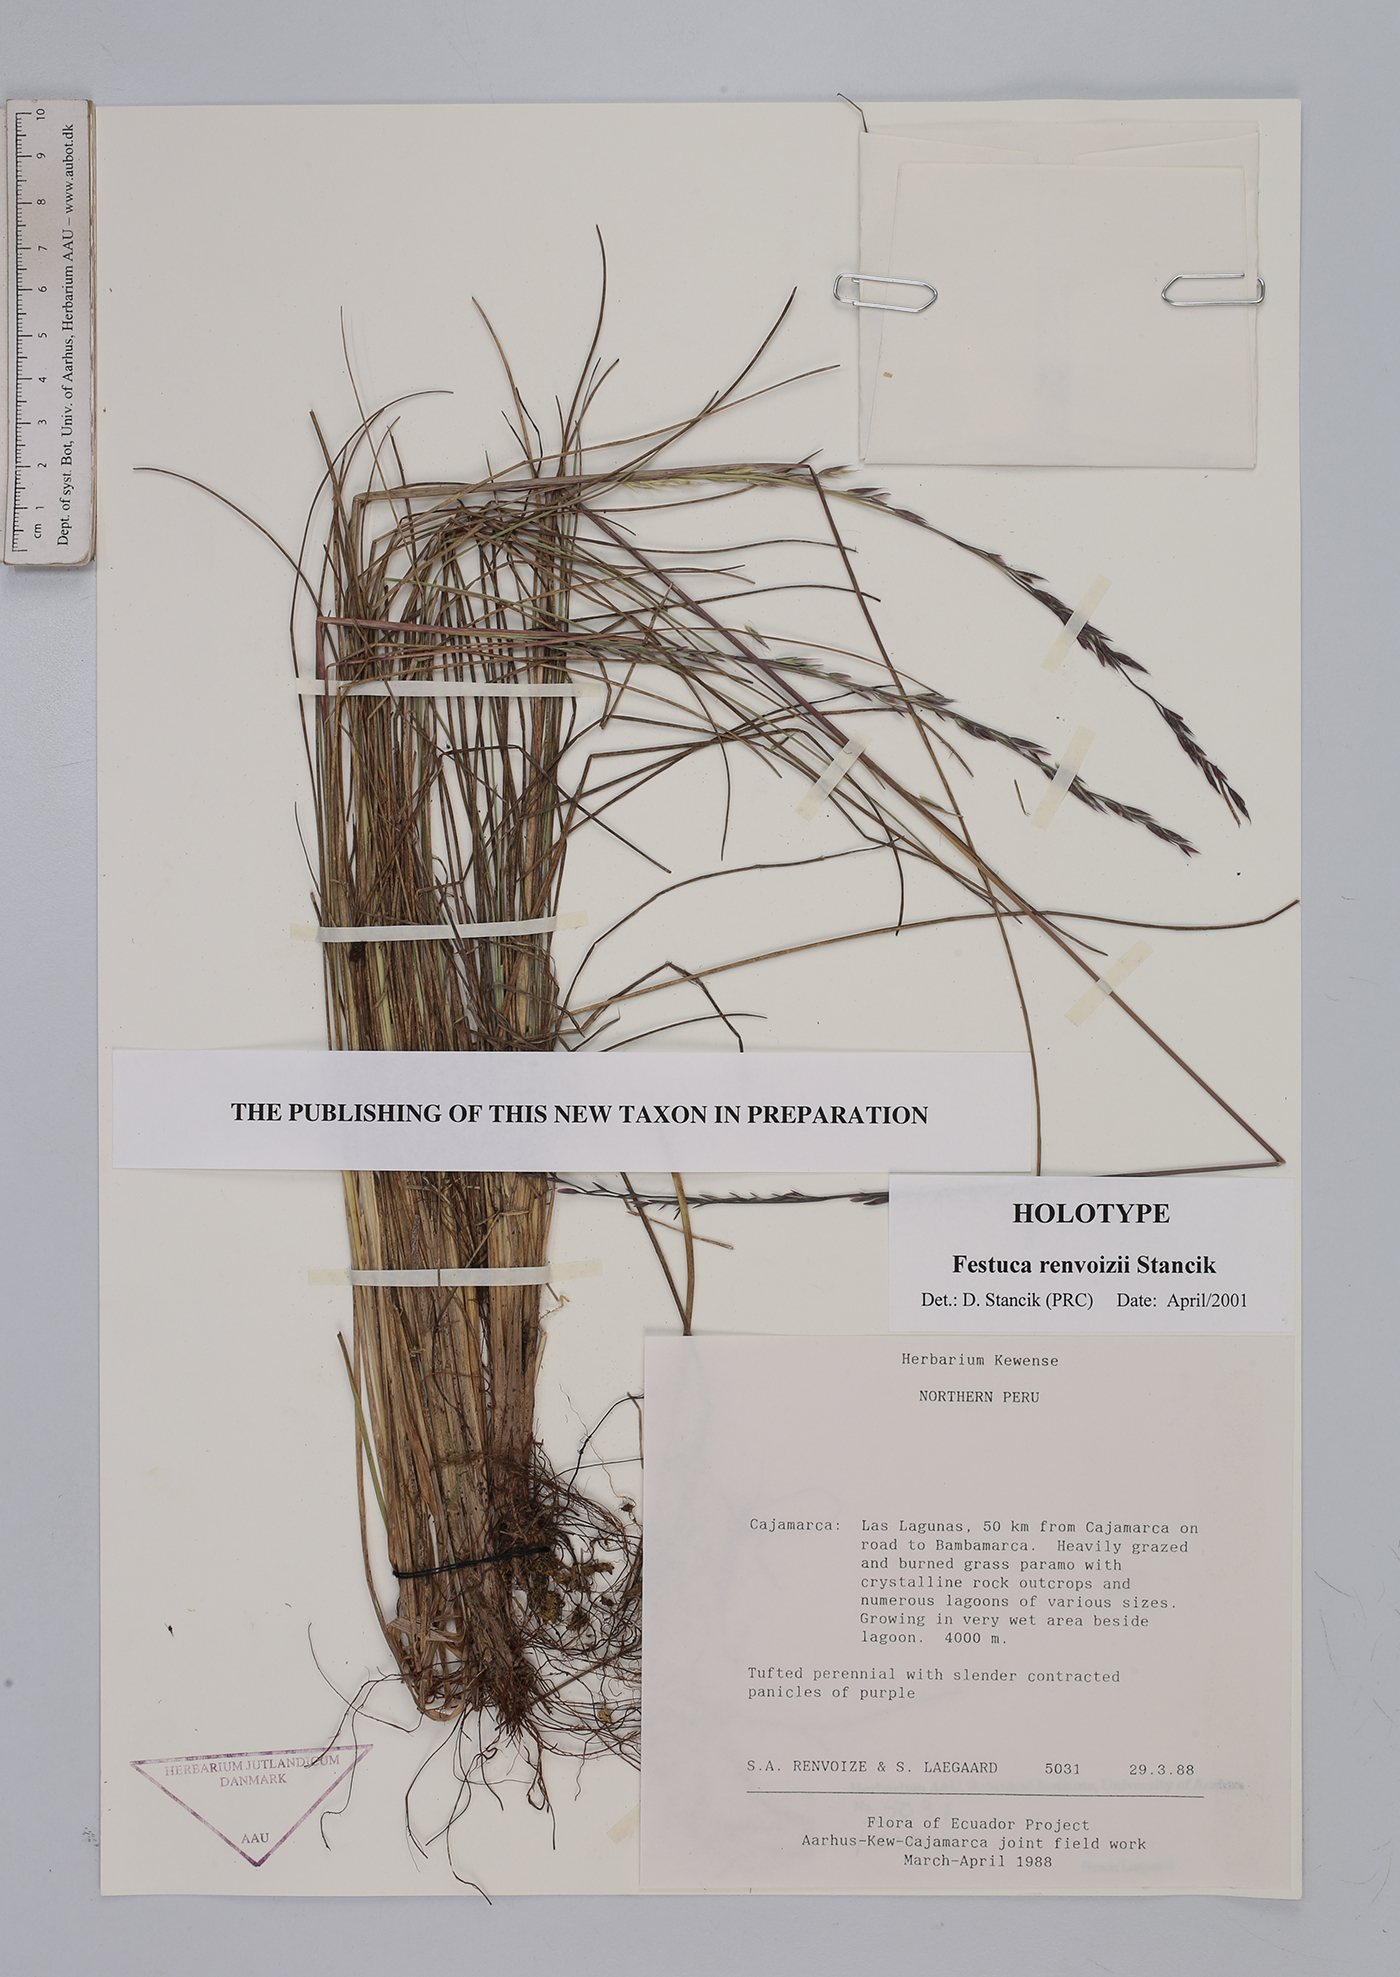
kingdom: Plantae
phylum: Tracheophyta
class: Liliopsida
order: Poales
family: Poaceae
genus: Festuca
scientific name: Festuca renvoizei
